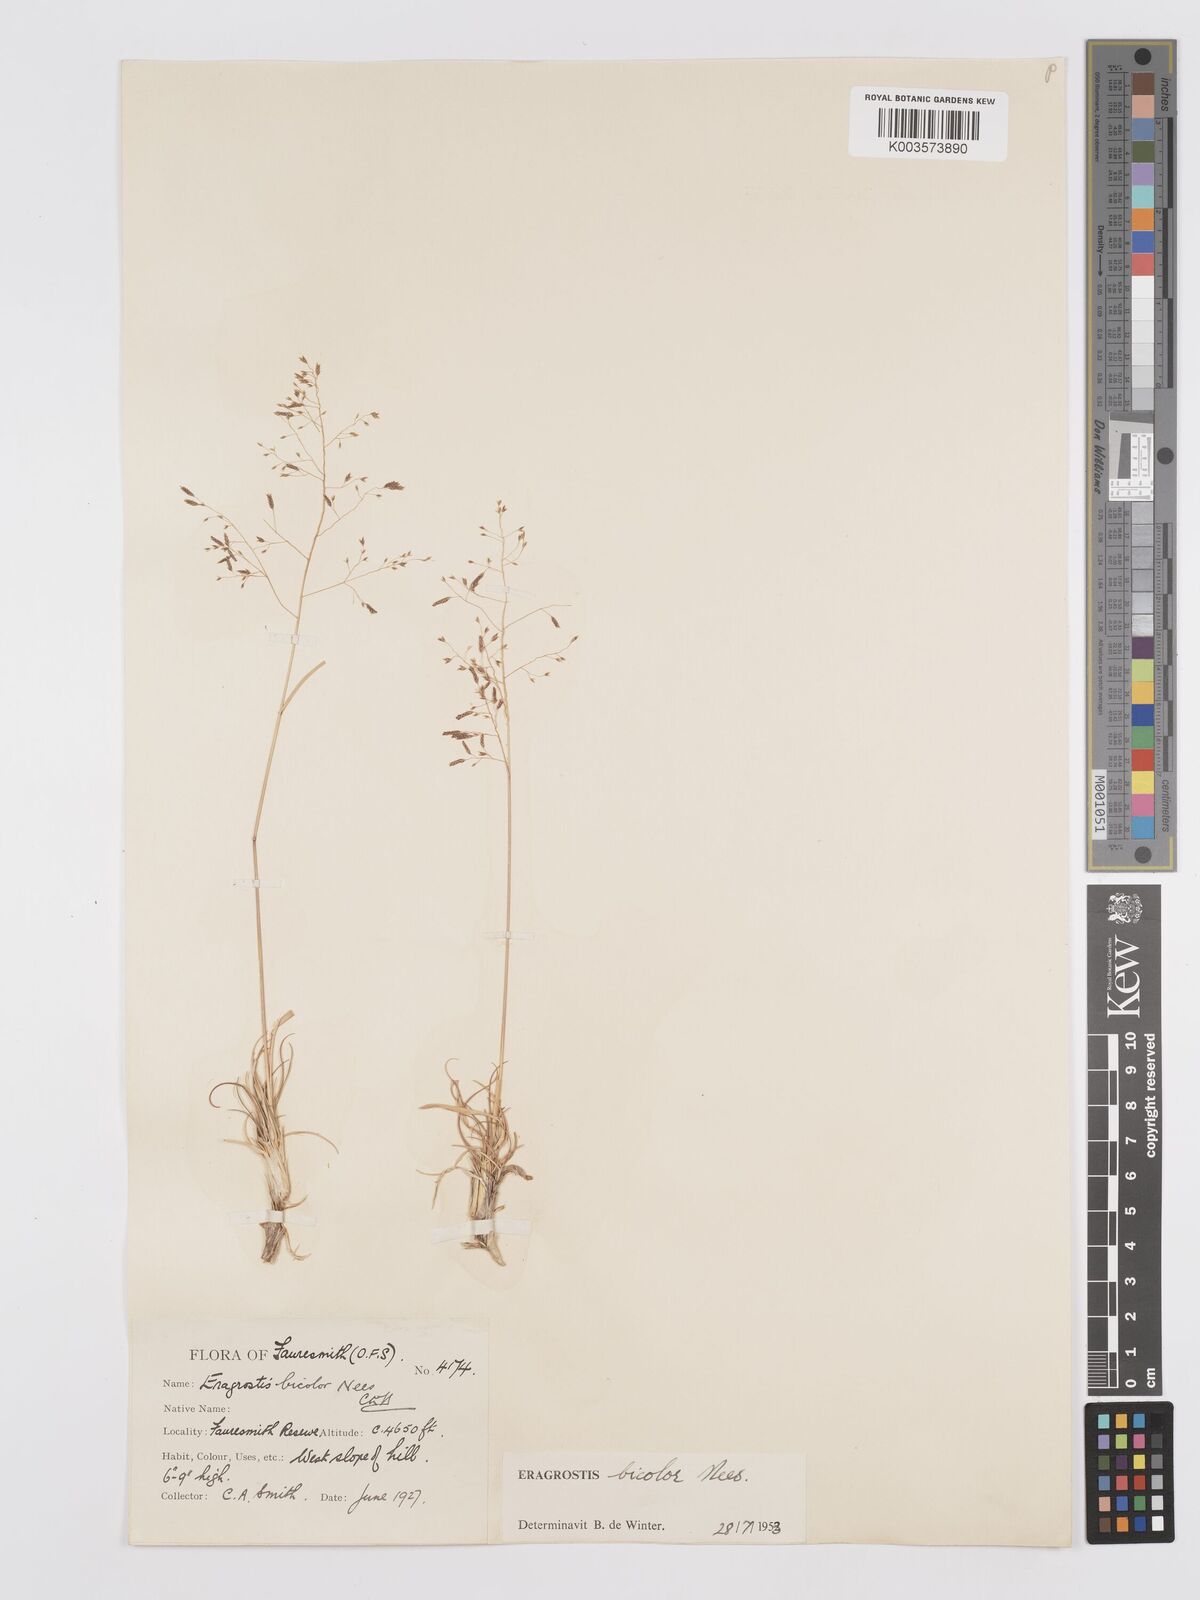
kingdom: Plantae
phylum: Tracheophyta
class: Liliopsida
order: Poales
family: Poaceae
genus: Eragrostis
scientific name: Eragrostis
